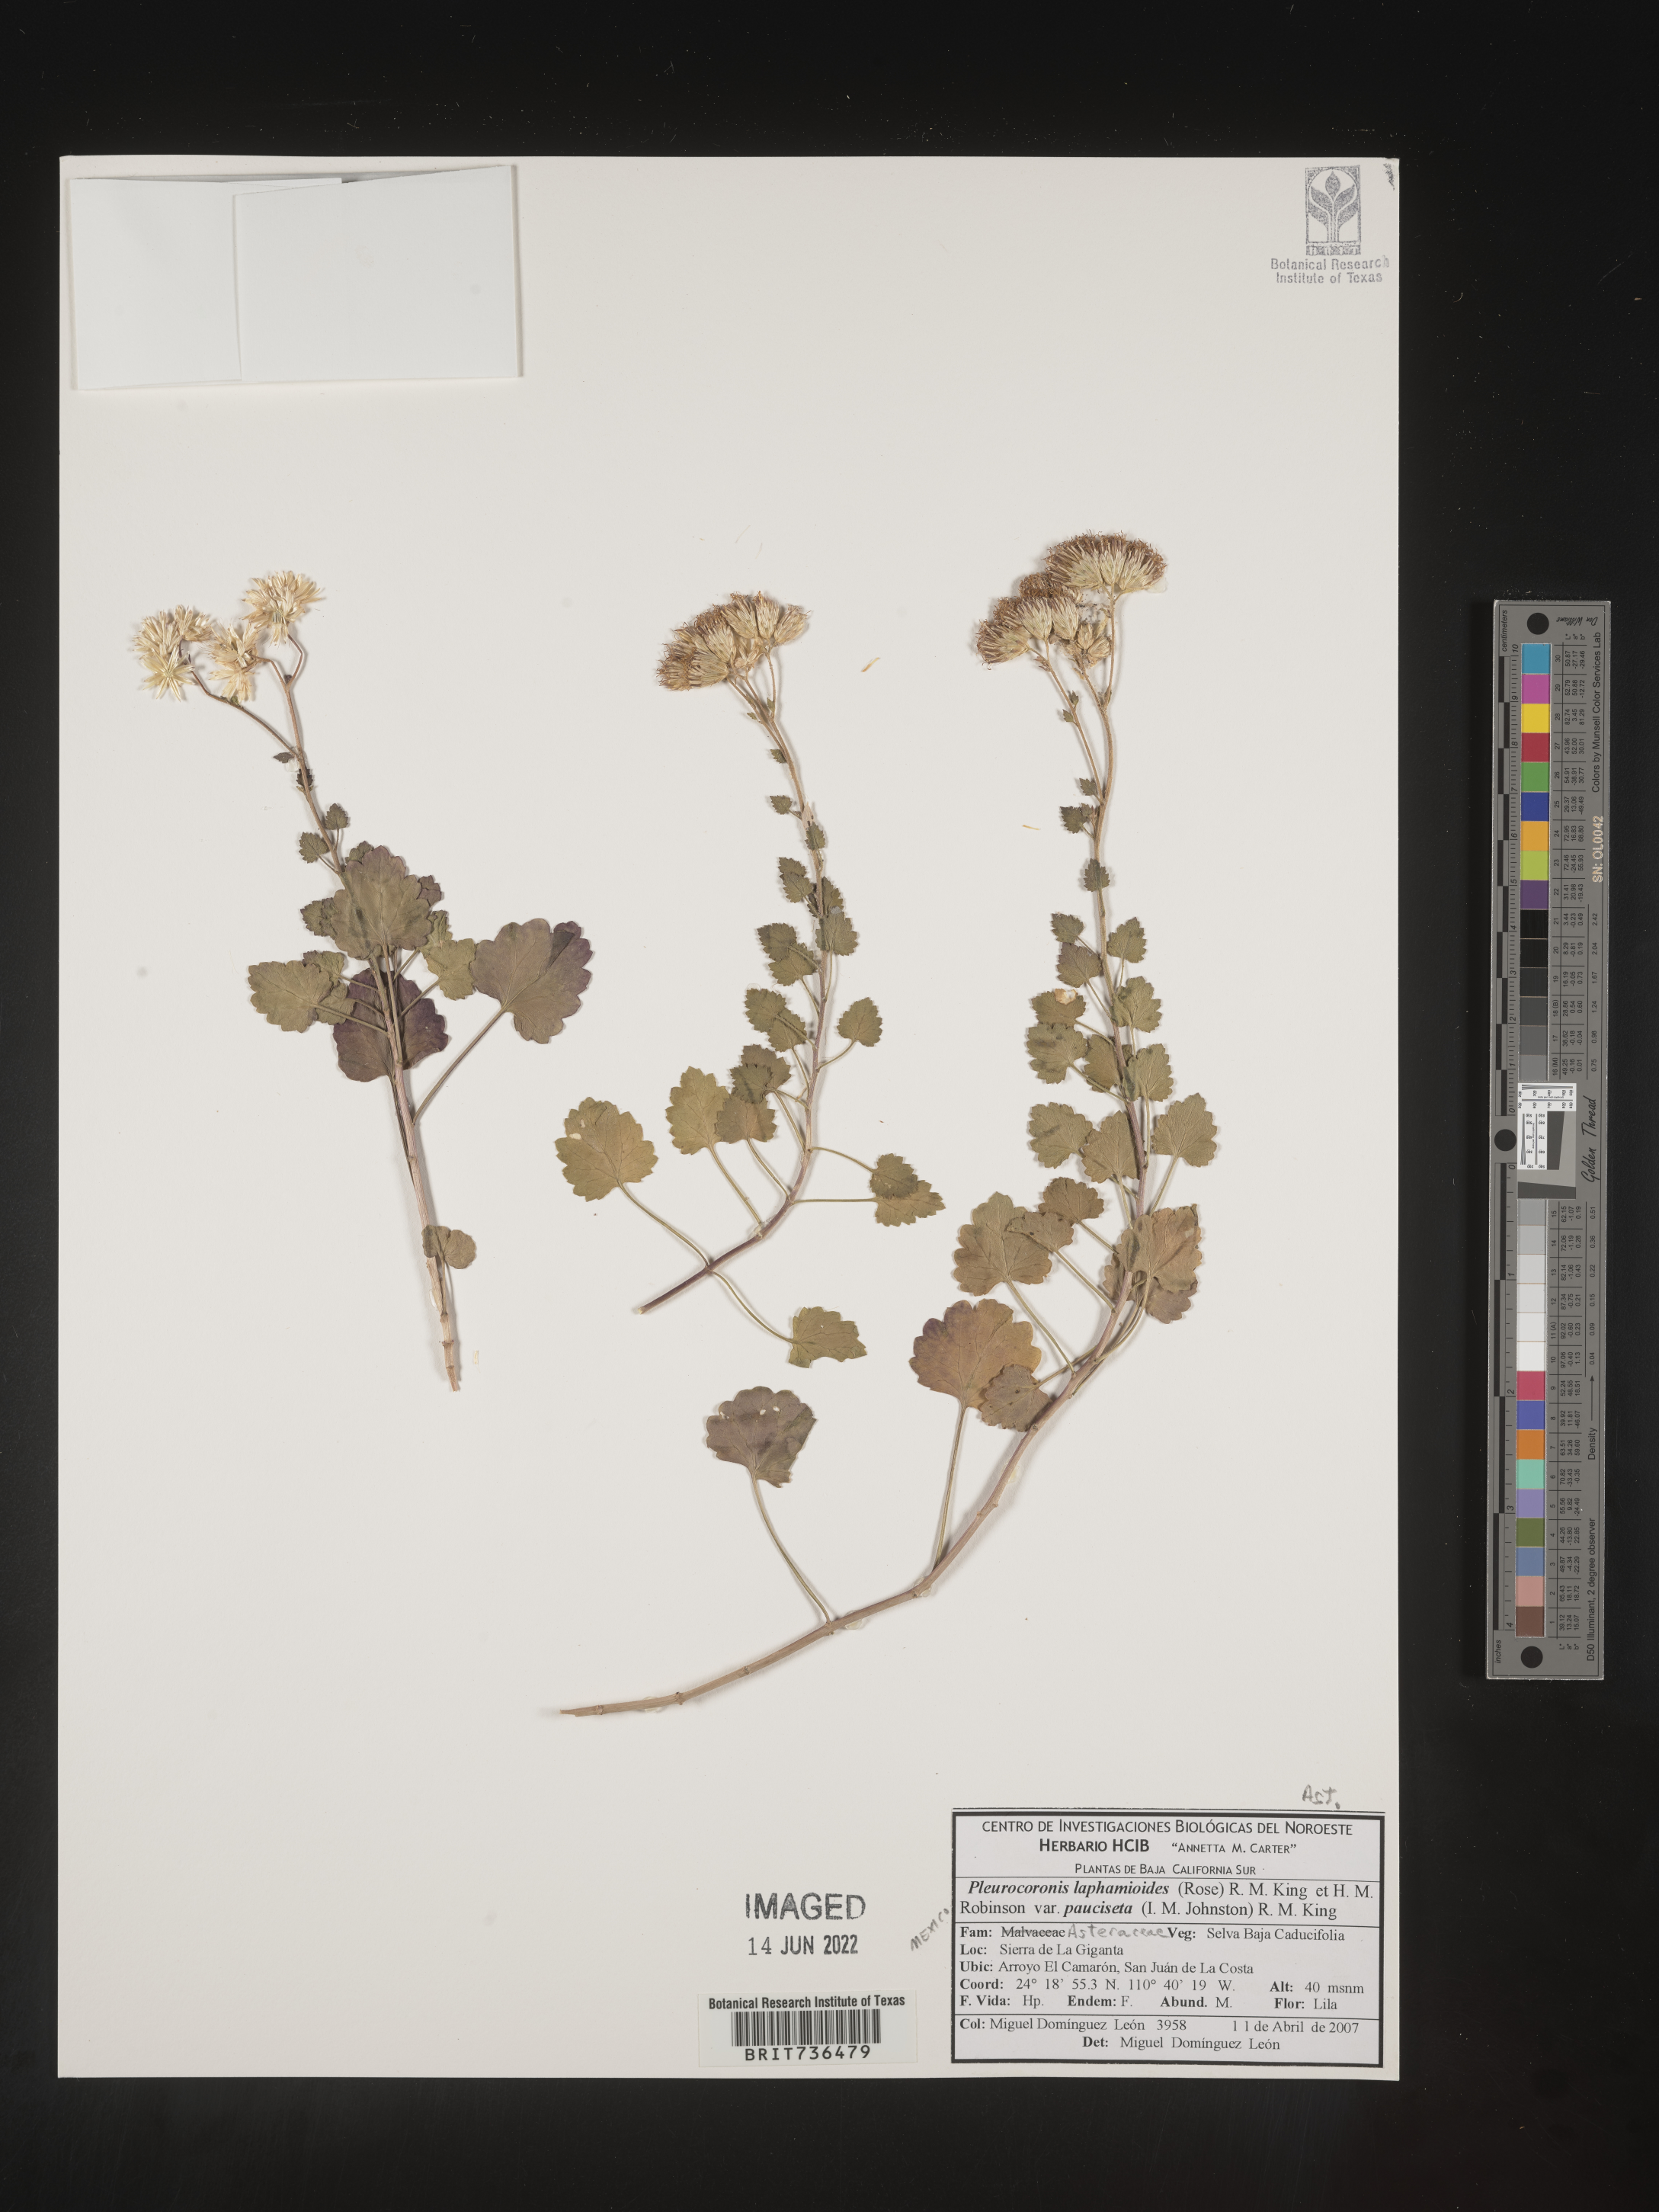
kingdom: Plantae
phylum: Tracheophyta
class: Magnoliopsida
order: Asterales
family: Asteraceae
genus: Pleurocoronis
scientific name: Pleurocoronis
